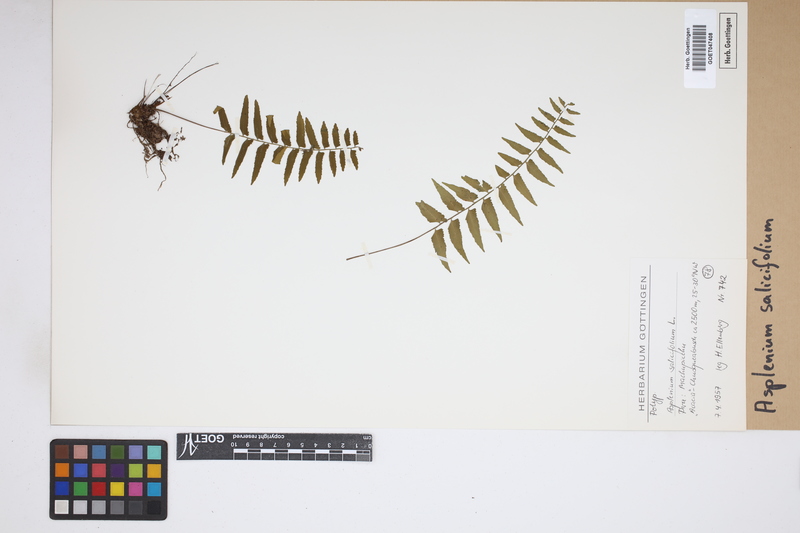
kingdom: Plantae
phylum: Tracheophyta
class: Polypodiopsida
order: Polypodiales
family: Aspleniaceae
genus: Asplenium
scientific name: Asplenium salicifolium
